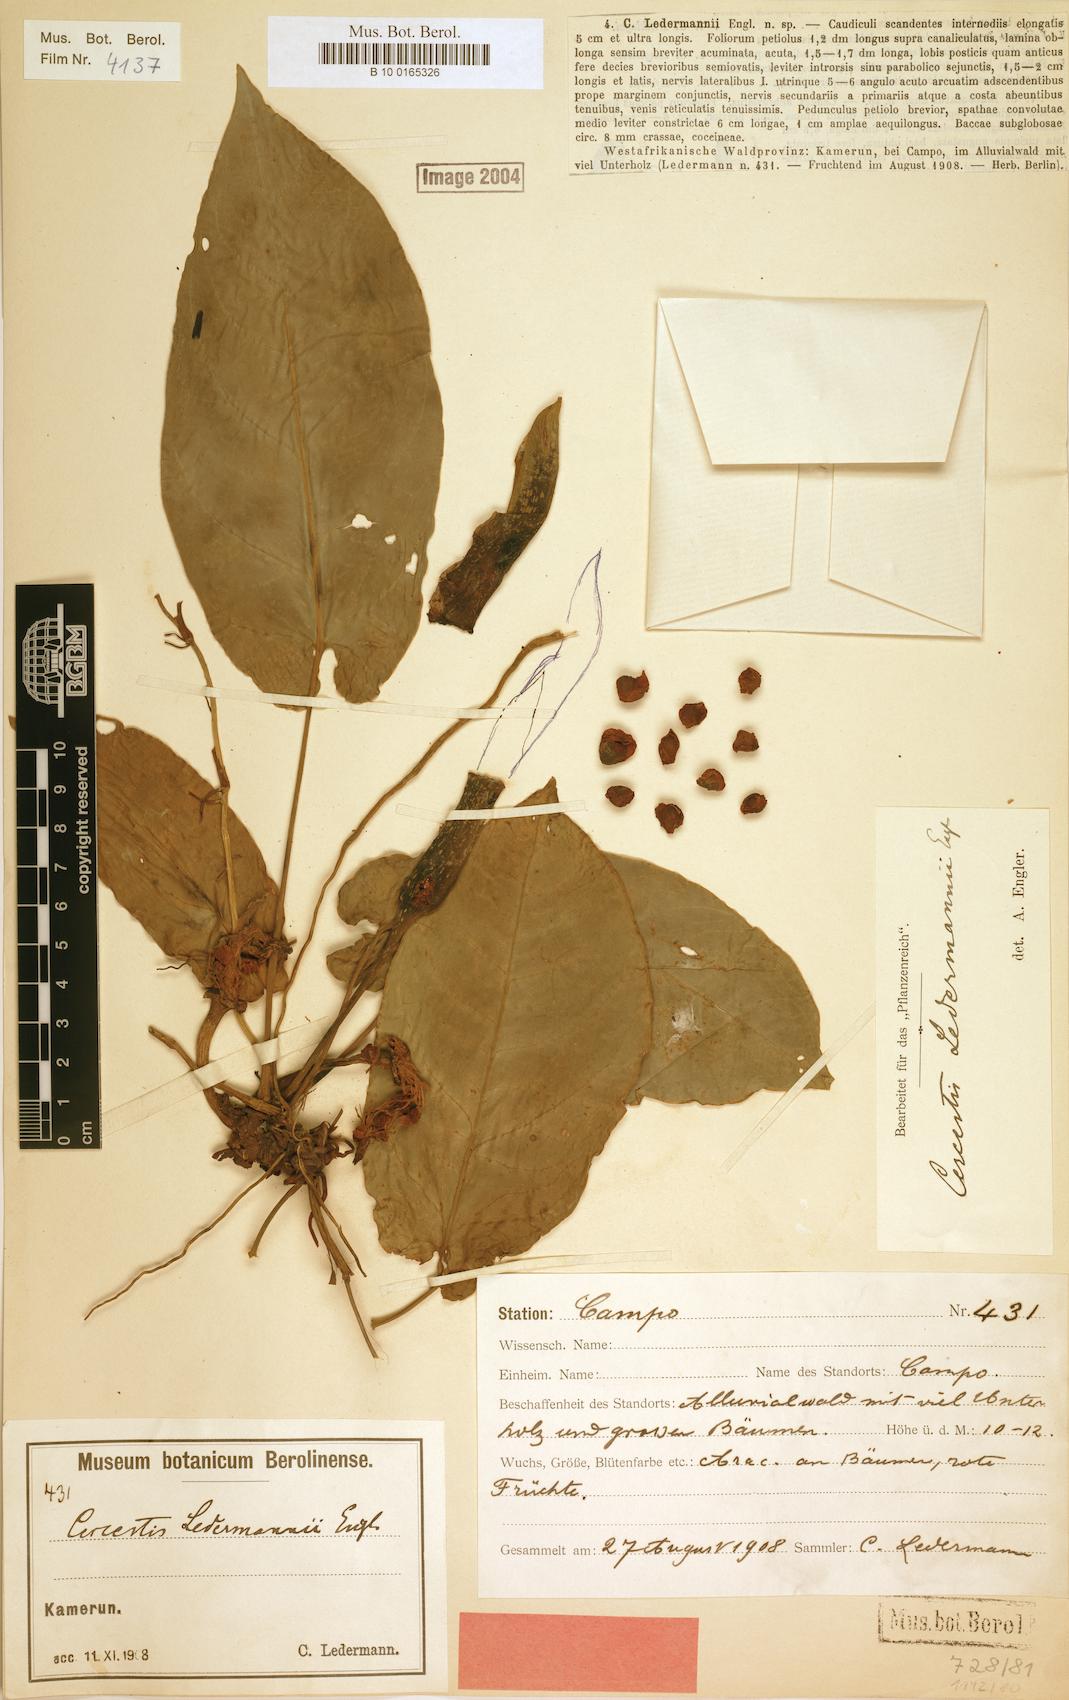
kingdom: Plantae
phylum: Tracheophyta
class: Liliopsida
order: Alismatales
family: Araceae
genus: Cercestis
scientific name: Cercestis dinklagei
